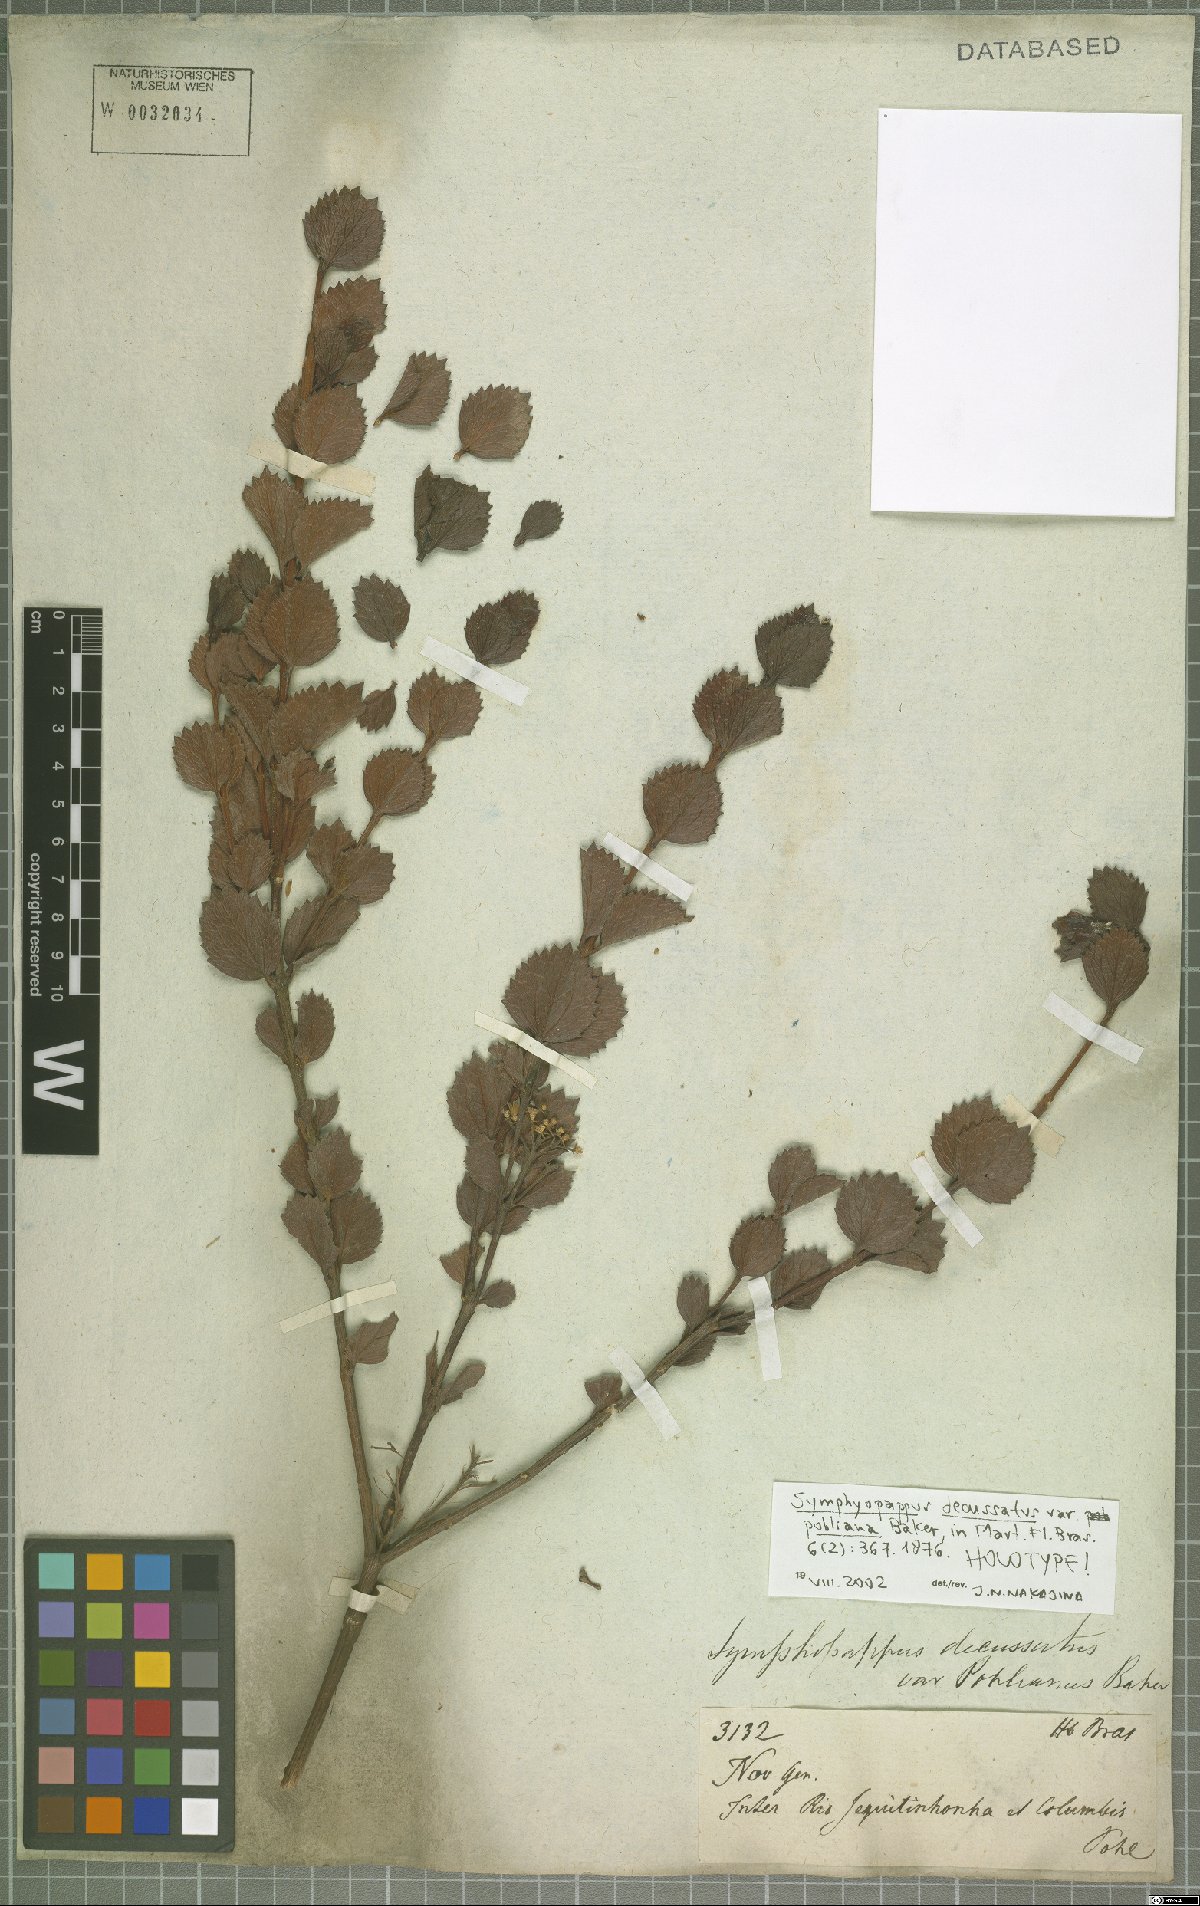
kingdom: Plantae
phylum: Tracheophyta
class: Magnoliopsida
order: Asterales
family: Asteraceae
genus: Symphyopappus
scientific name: Symphyopappus decussatus
